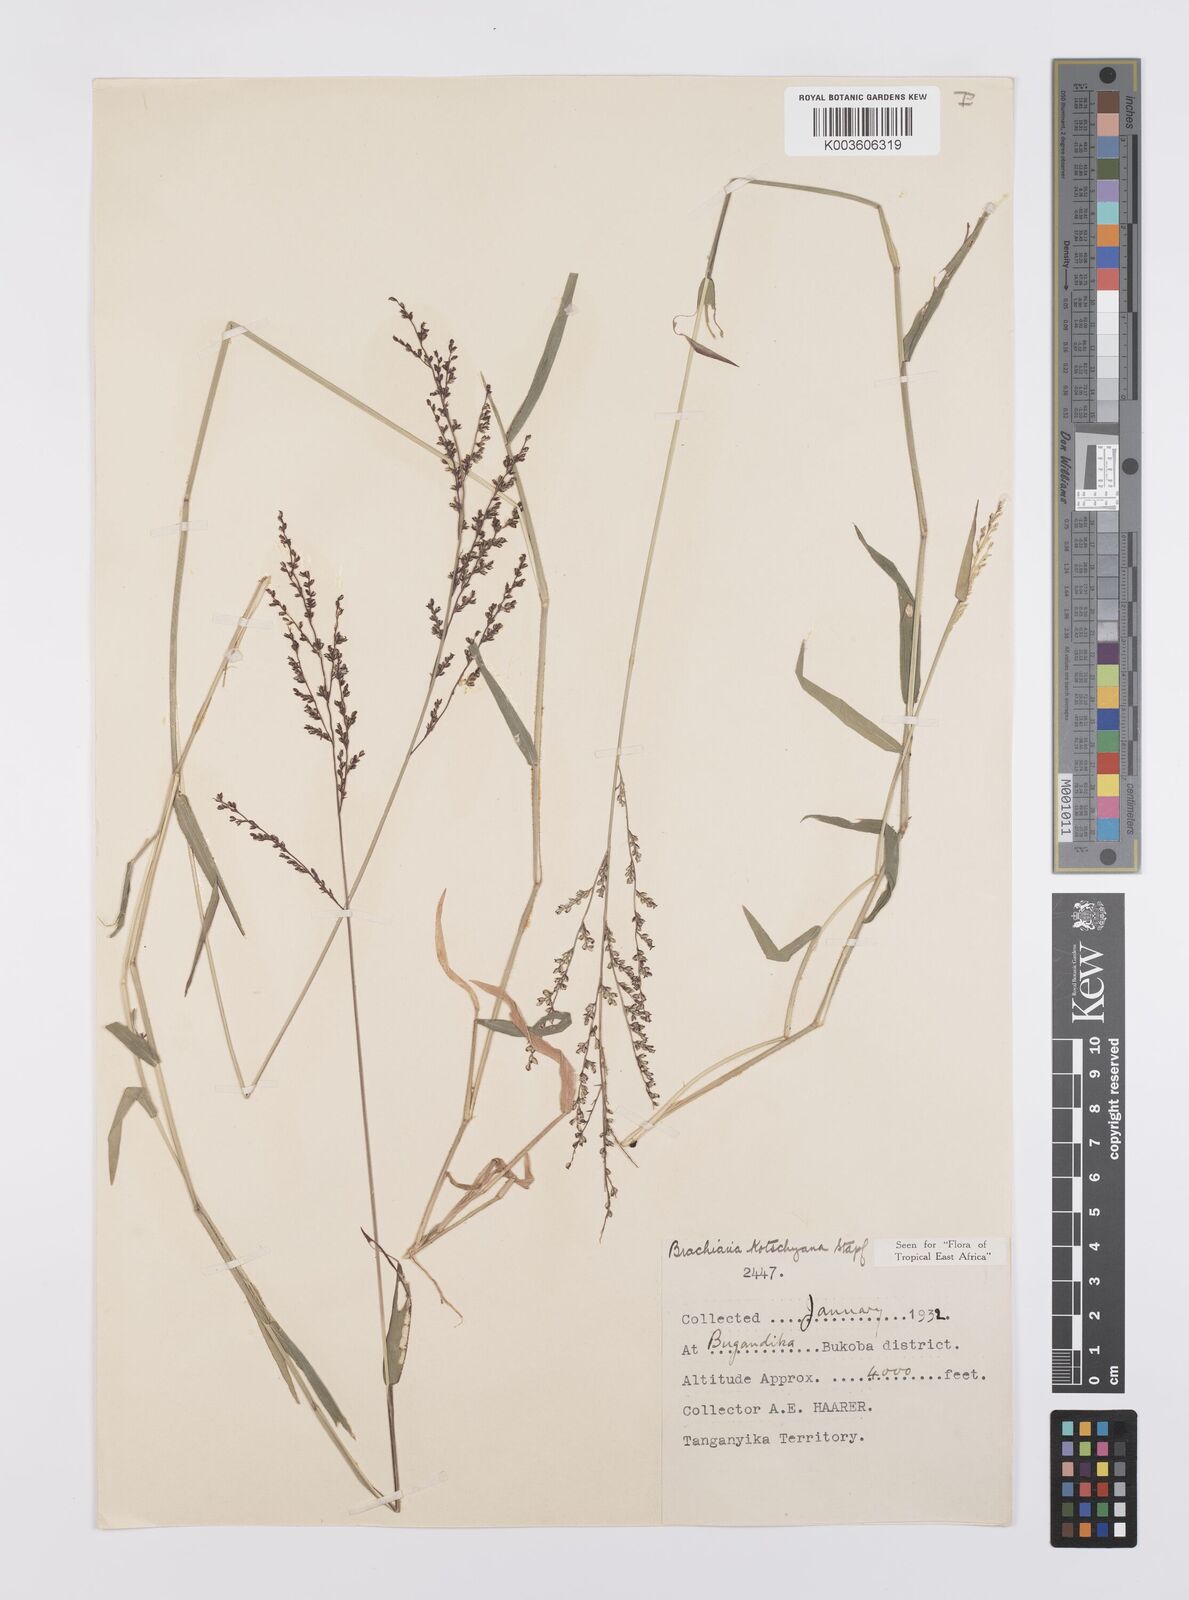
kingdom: Plantae
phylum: Tracheophyta
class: Liliopsida
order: Poales
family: Poaceae
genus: Urochloa
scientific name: Urochloa comata
